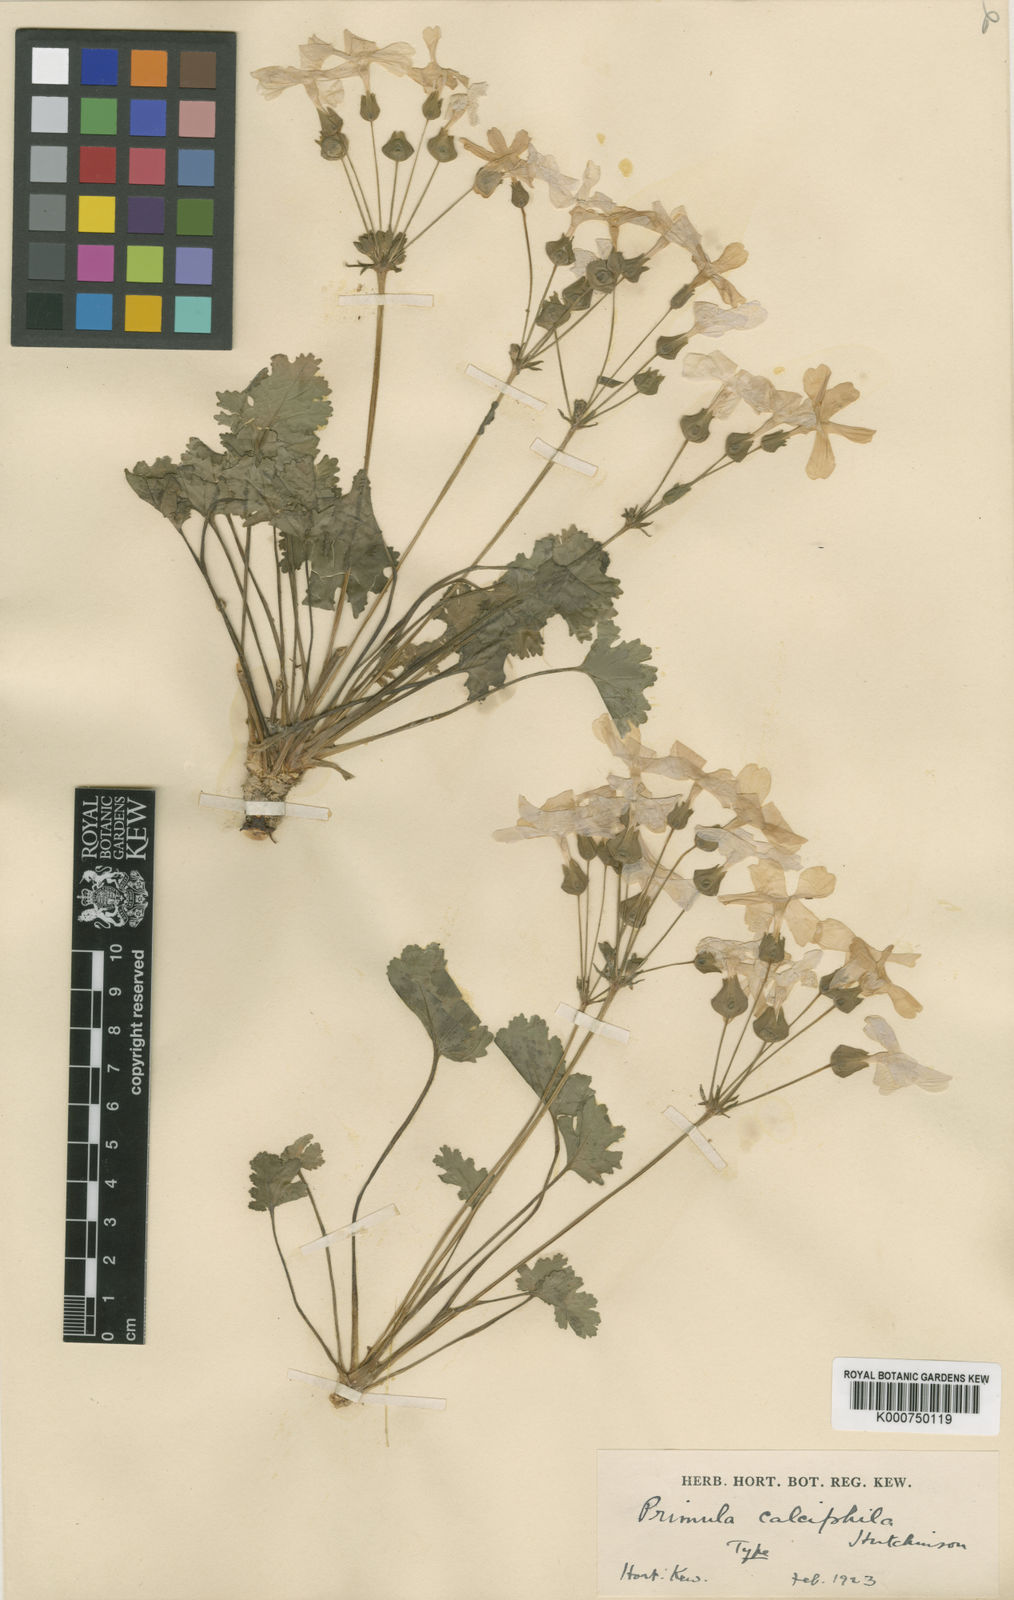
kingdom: Plantae
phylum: Tracheophyta
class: Magnoliopsida
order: Ericales
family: Primulaceae
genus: Primula
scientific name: Primula rupestris
